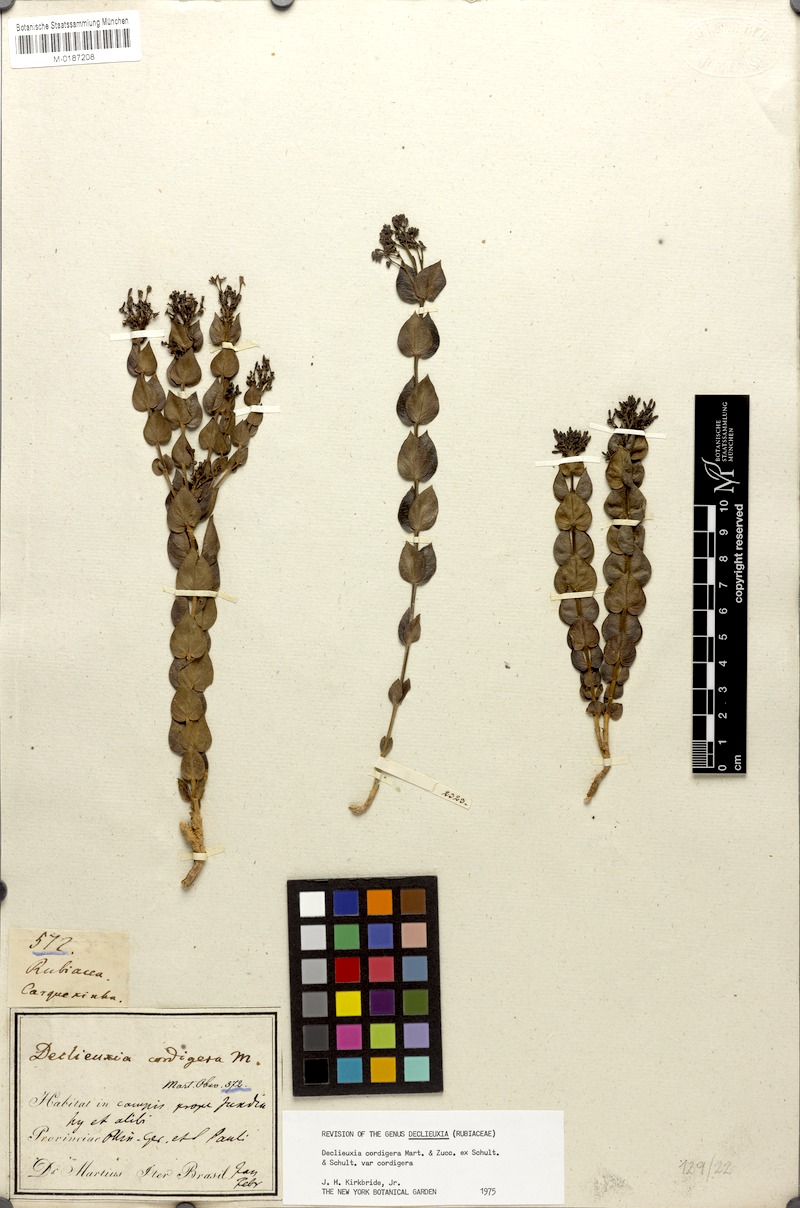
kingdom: Plantae
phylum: Tracheophyta
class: Magnoliopsida
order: Gentianales
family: Rubiaceae
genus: Declieuxia
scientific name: Declieuxia cordigera
